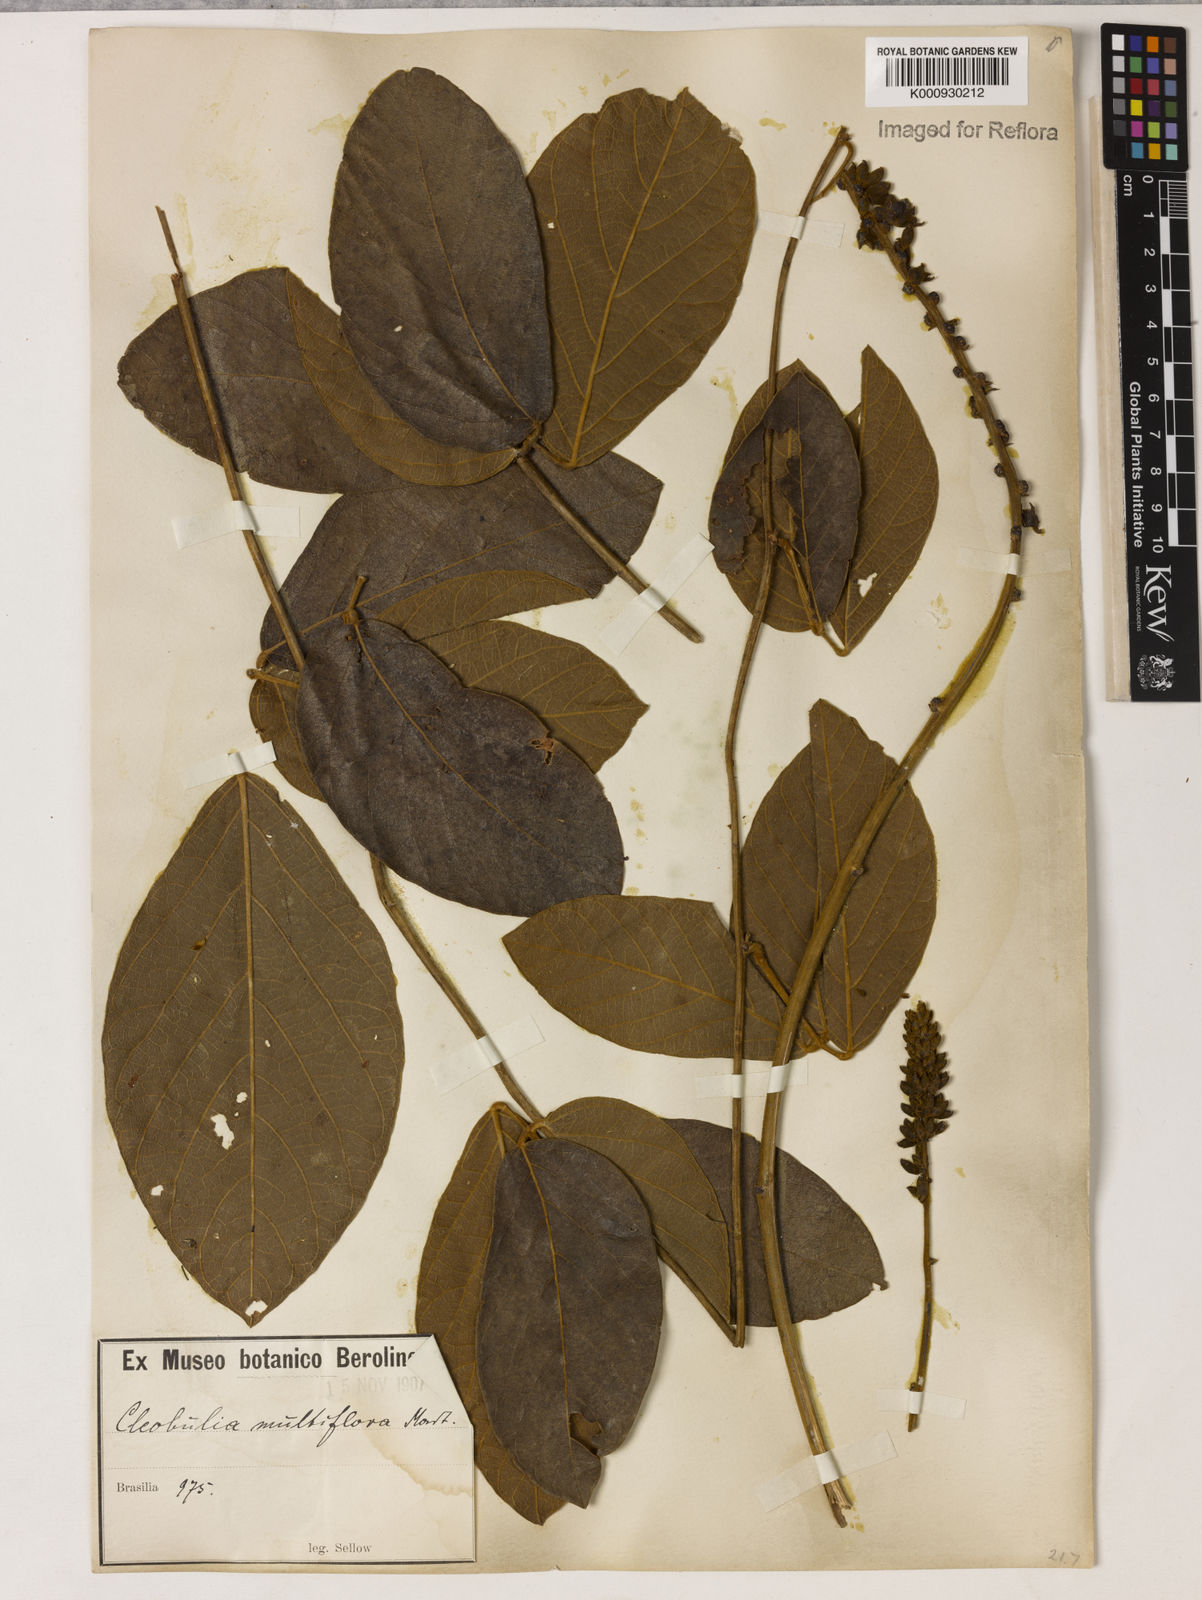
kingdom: Plantae
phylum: Tracheophyta
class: Magnoliopsida
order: Fabales
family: Fabaceae
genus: Cleobulia
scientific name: Cleobulia coccinea
